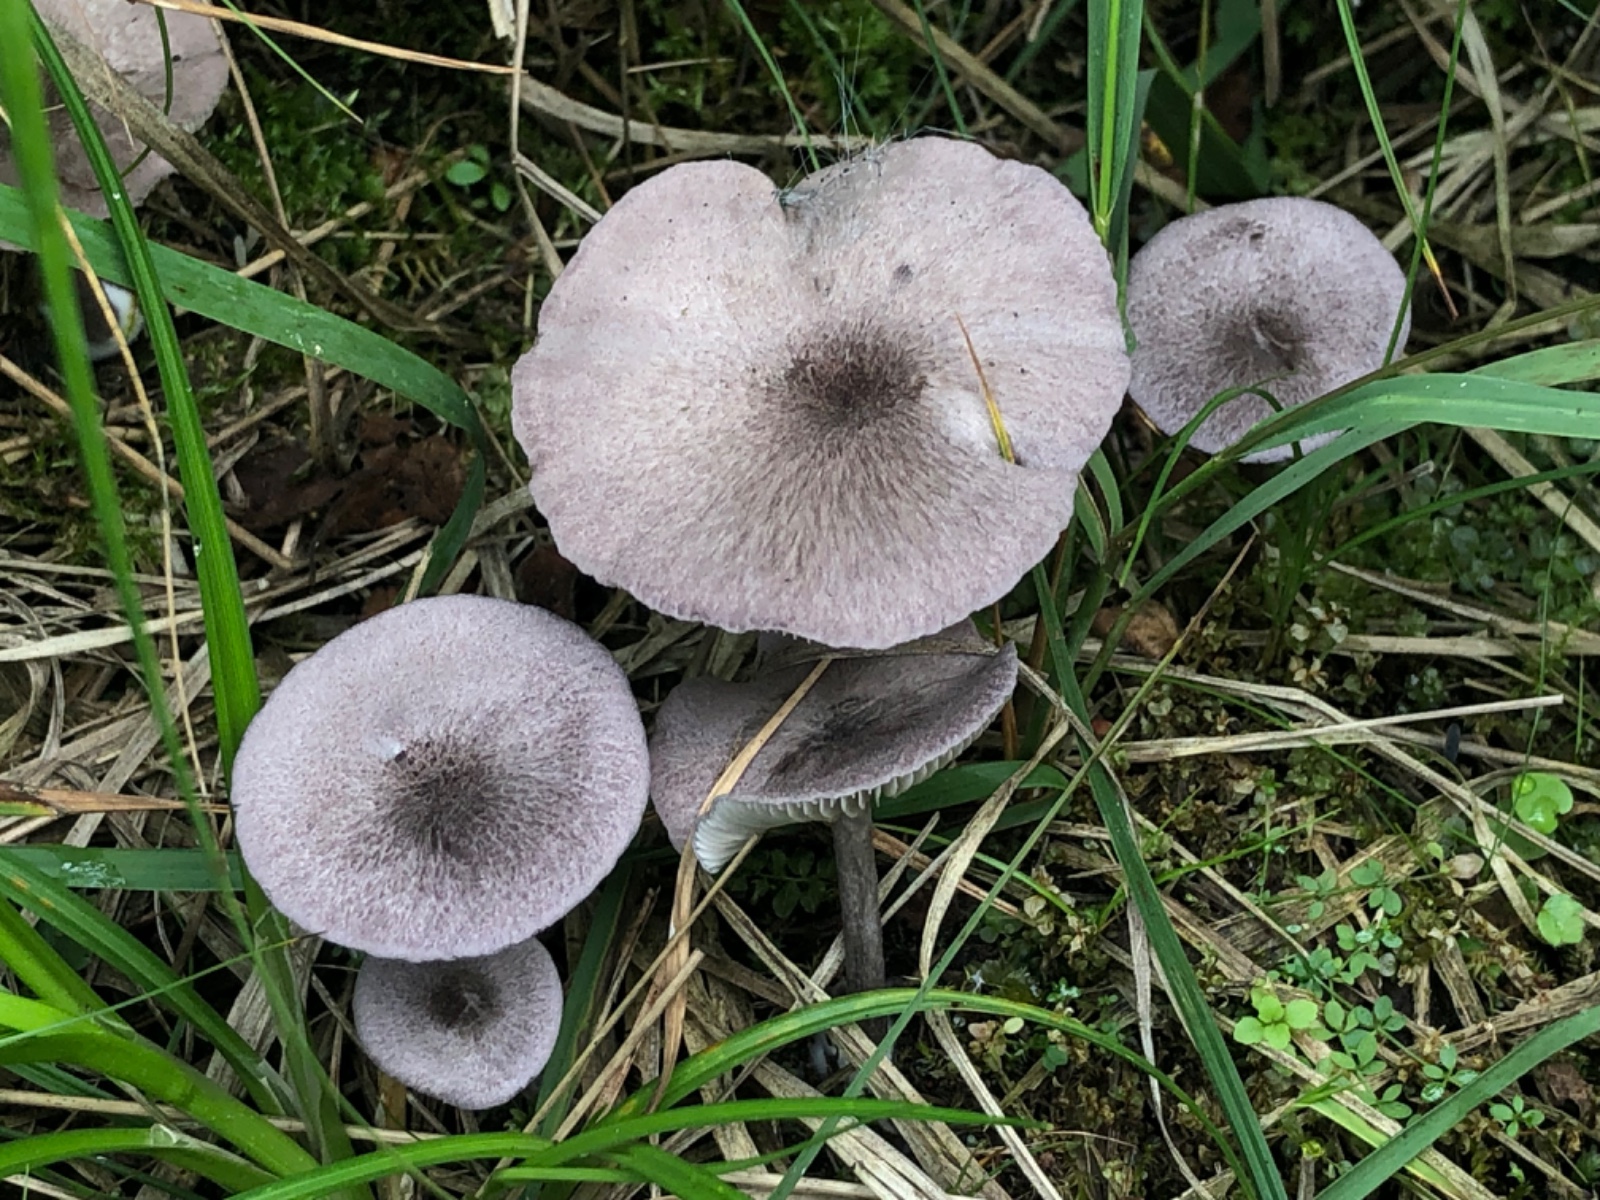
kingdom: Fungi
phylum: Basidiomycota
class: Agaricomycetes
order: Agaricales
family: Entolomataceae
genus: Entoloma
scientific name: Entoloma mougeotii
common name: violetgrå rødblad
